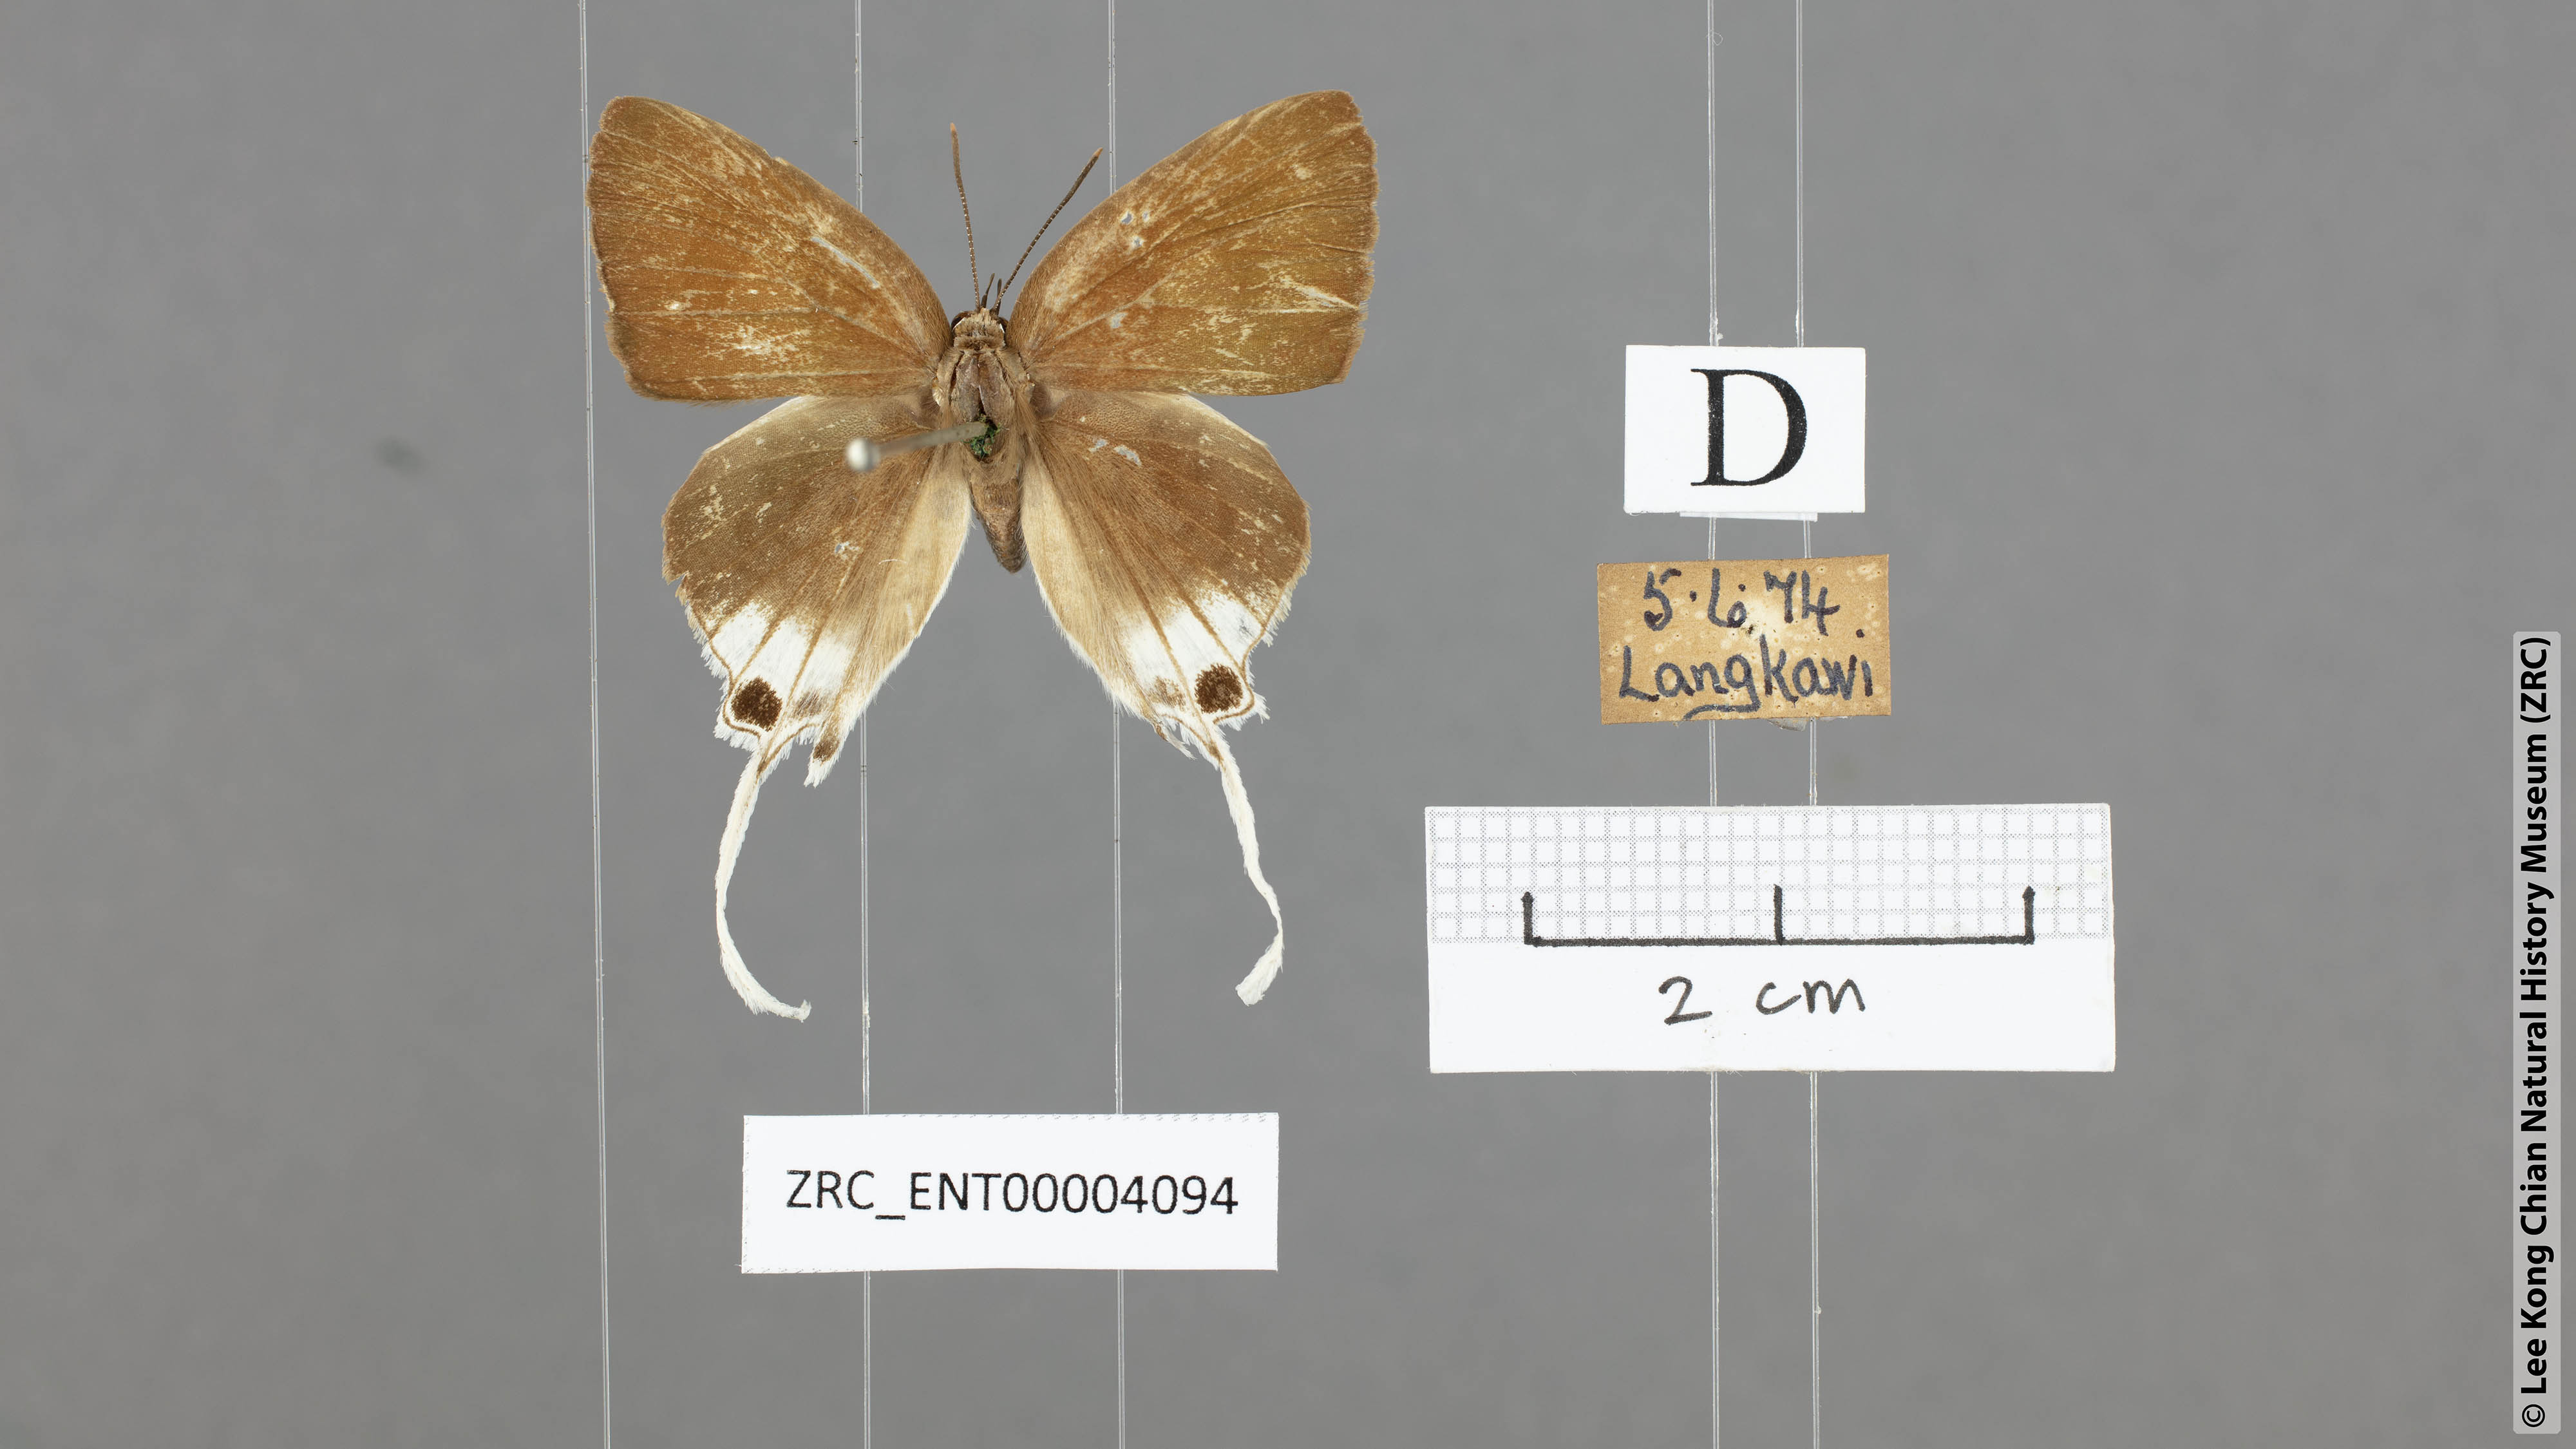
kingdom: Animalia
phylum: Arthropoda
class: Insecta
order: Lepidoptera
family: Lycaenidae
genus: Bindahara
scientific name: Bindahara phocides
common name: Sword-tailed flash
